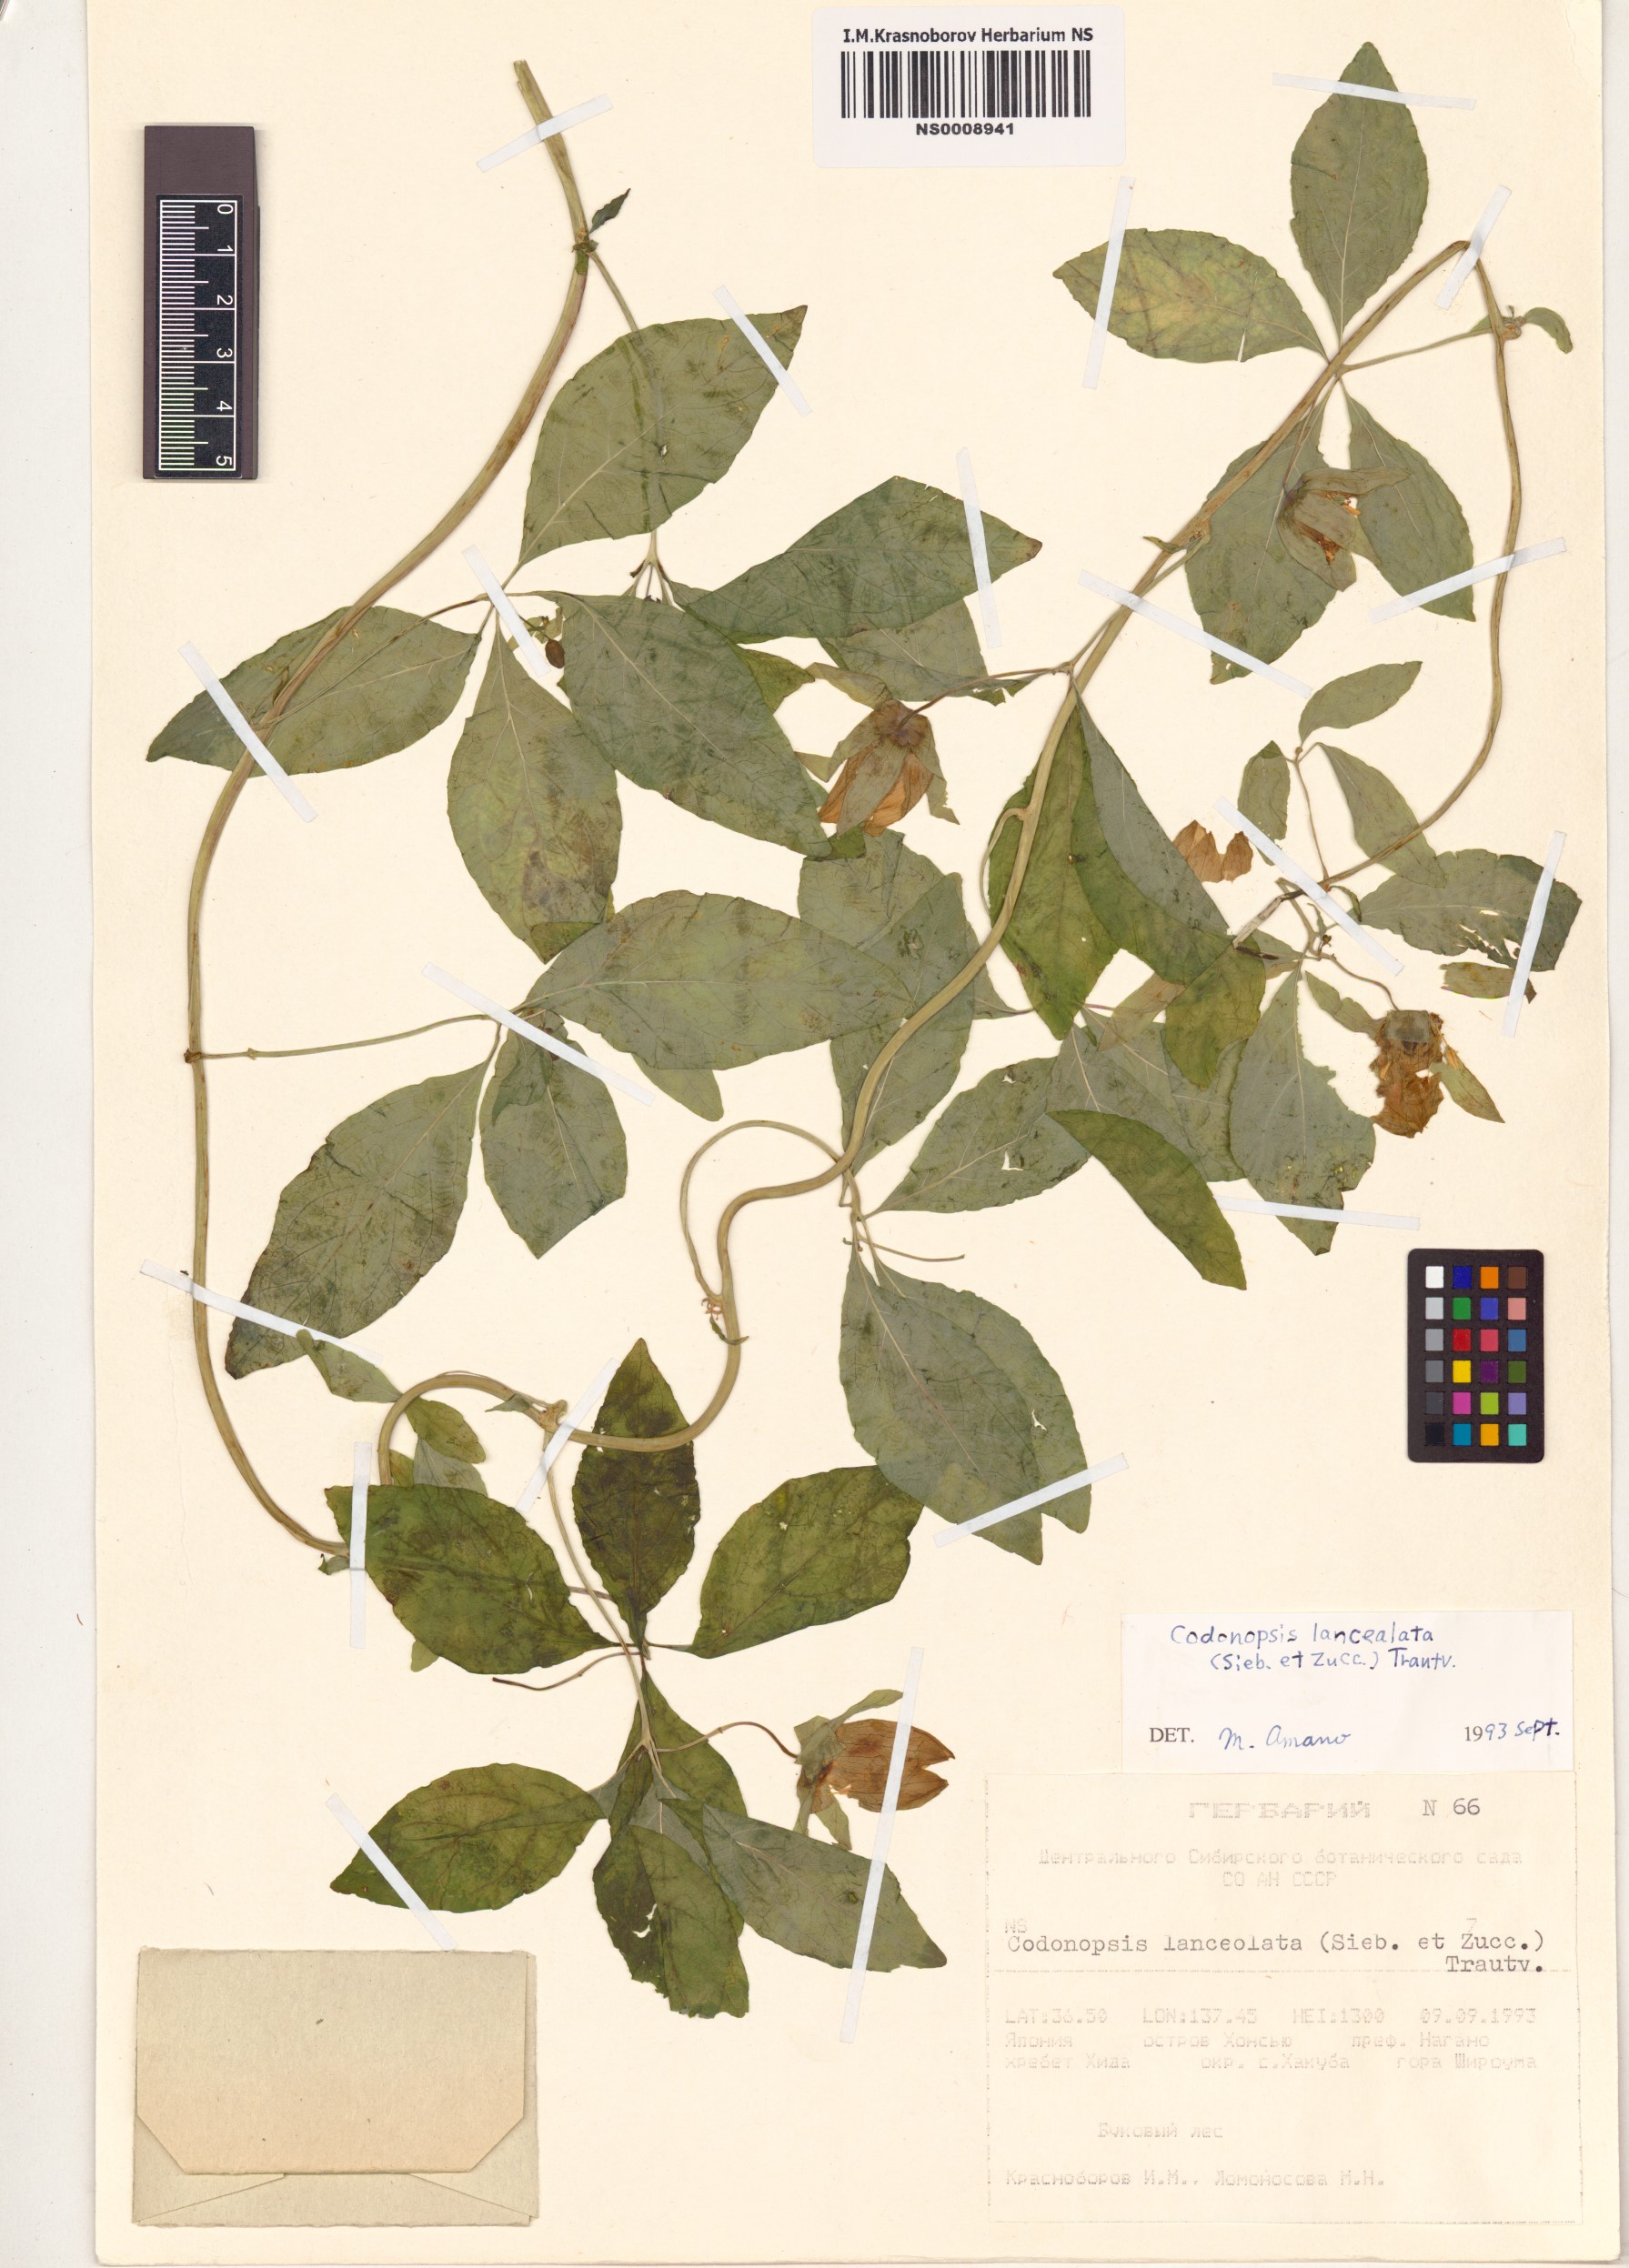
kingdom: Plantae
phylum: Tracheophyta
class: Magnoliopsida
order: Asterales
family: Campanulaceae
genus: Codonopsis
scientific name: Codonopsis lanceolata
